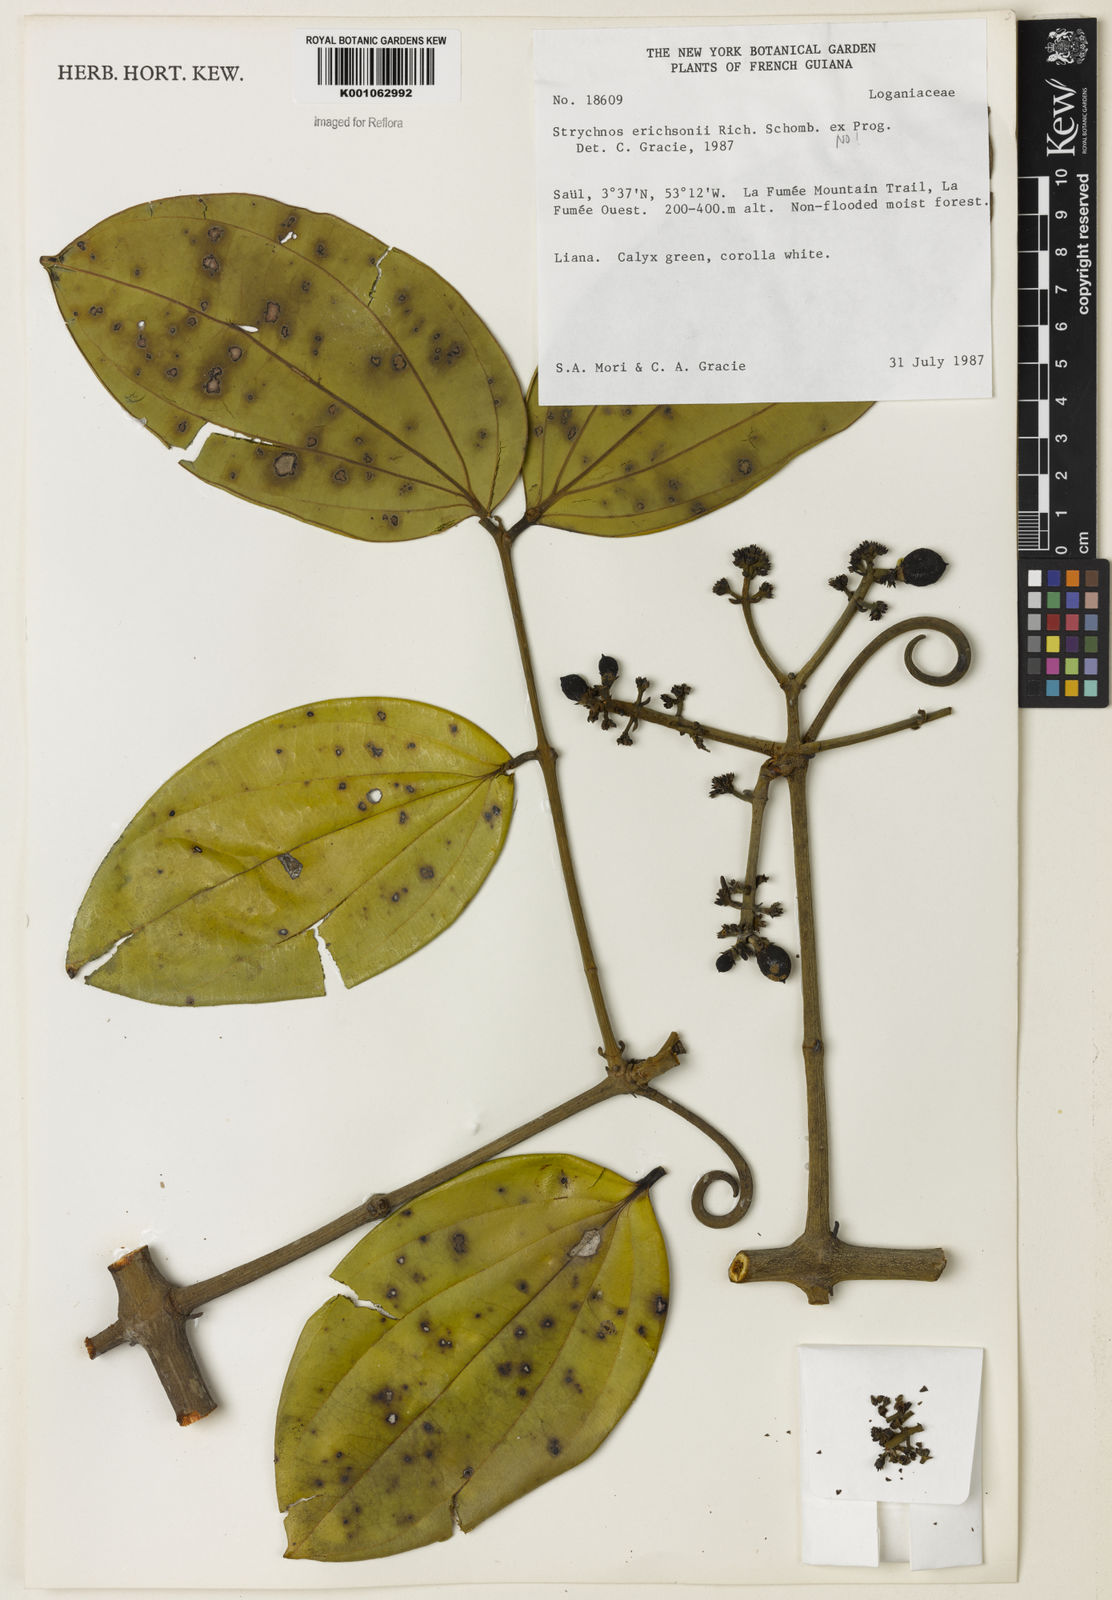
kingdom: Plantae
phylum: Tracheophyta
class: Magnoliopsida
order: Gentianales
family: Loganiaceae
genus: Strychnos
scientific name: Strychnos
